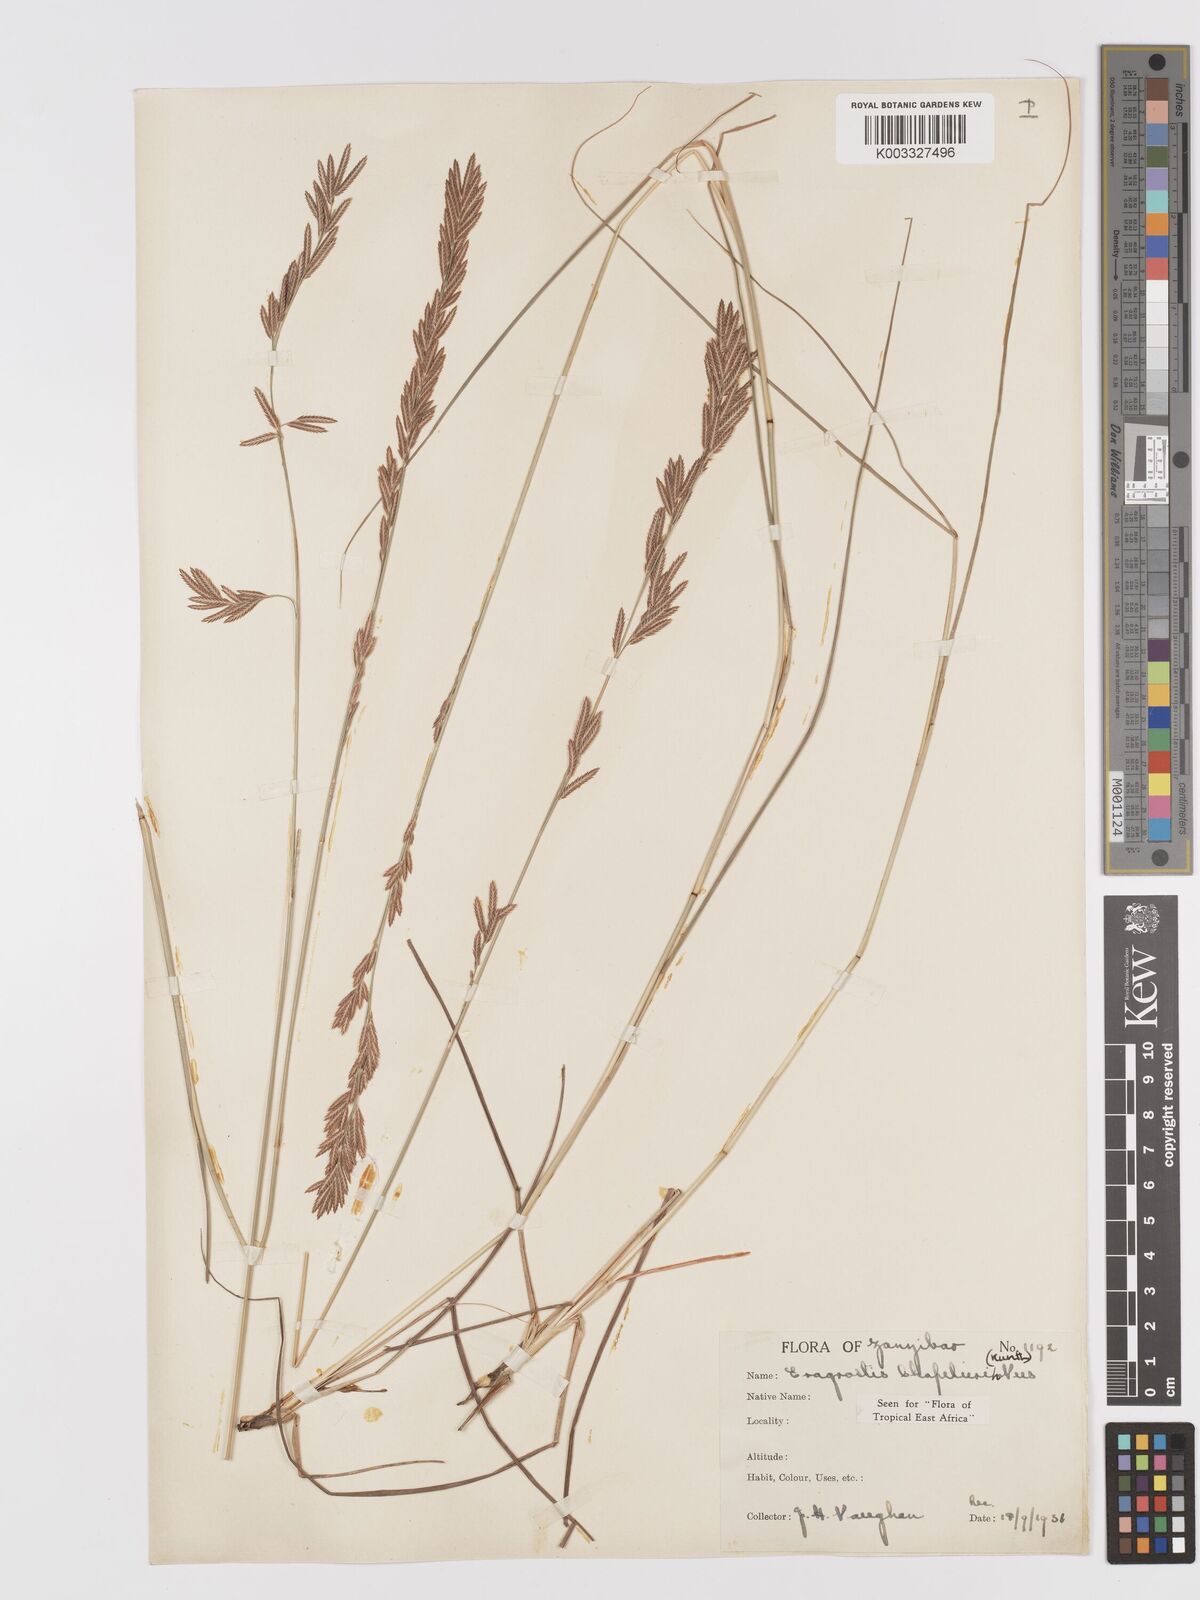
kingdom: Plantae
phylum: Tracheophyta
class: Liliopsida
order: Poales
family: Poaceae
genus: Eragrostis
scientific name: Eragrostis chapelieri
